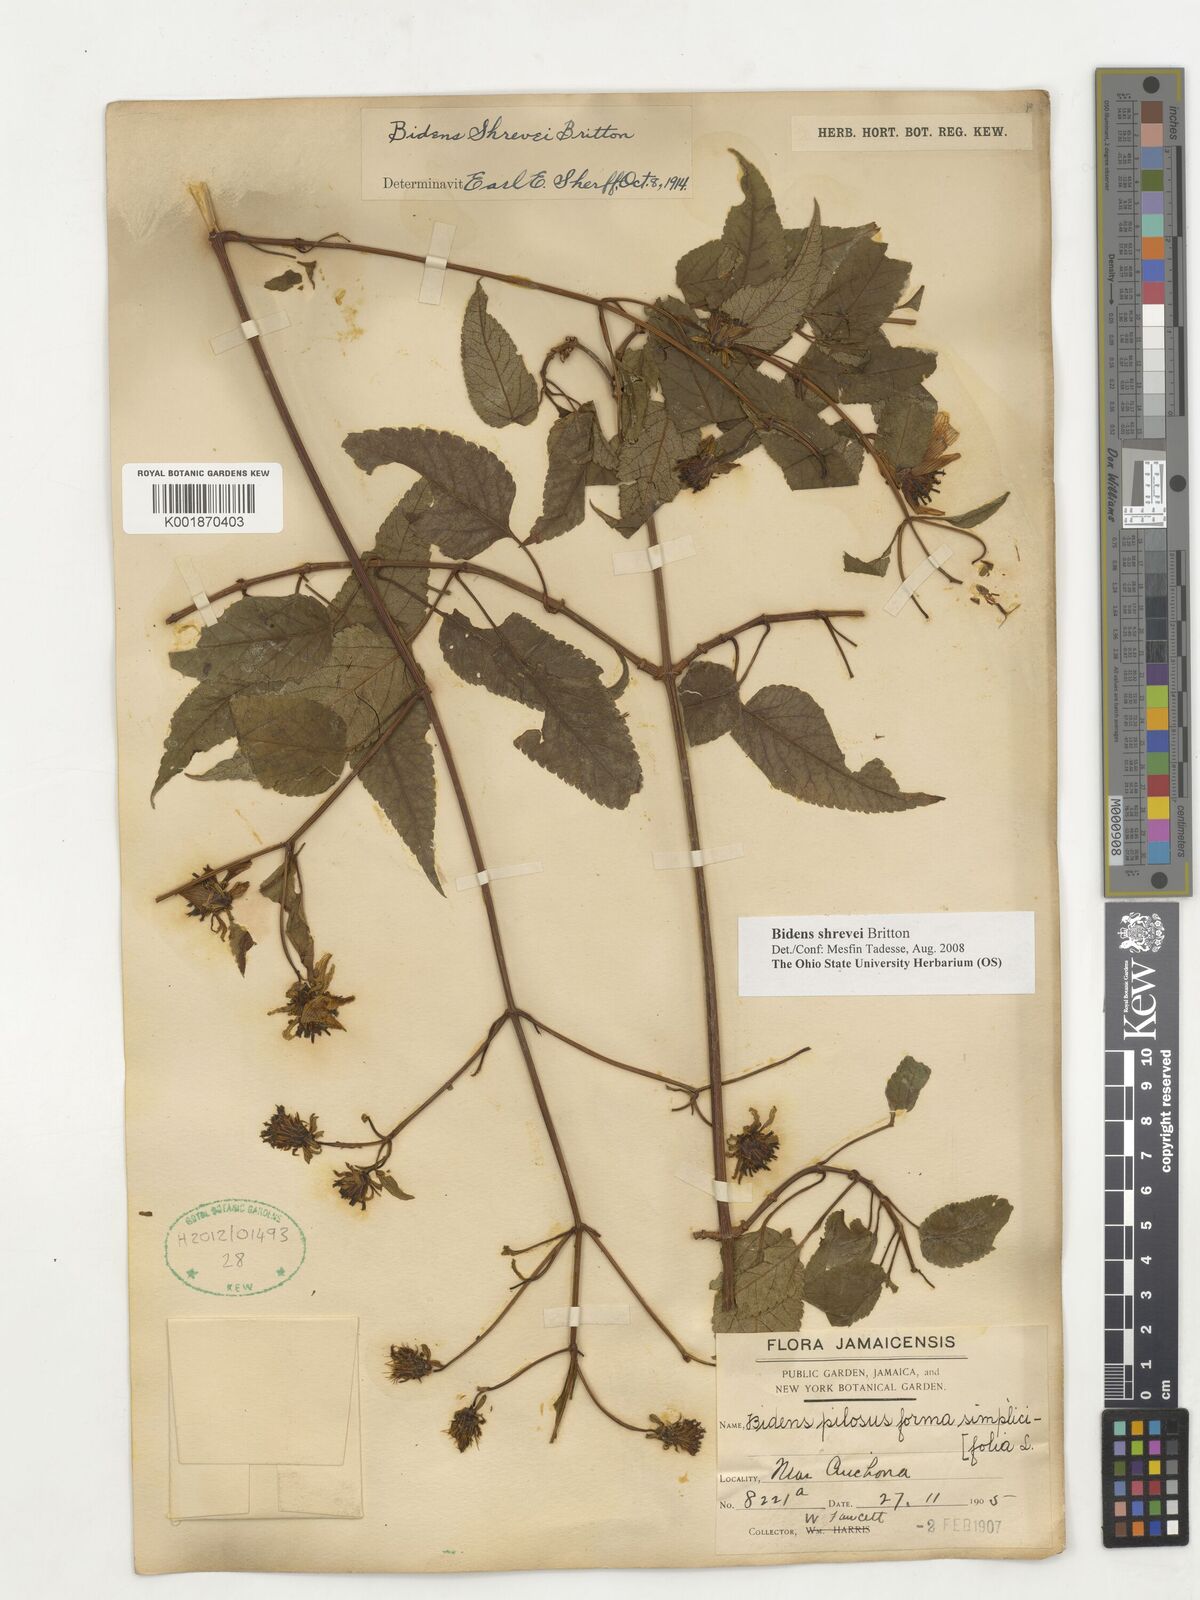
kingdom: Plantae
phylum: Tracheophyta
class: Magnoliopsida
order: Asterales
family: Asteraceae
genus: Bidens
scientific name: Bidens shrevei
